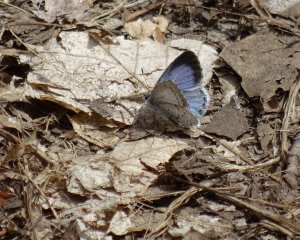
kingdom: Animalia
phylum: Arthropoda
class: Insecta
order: Lepidoptera
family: Lycaenidae
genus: Celastrina
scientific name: Celastrina
